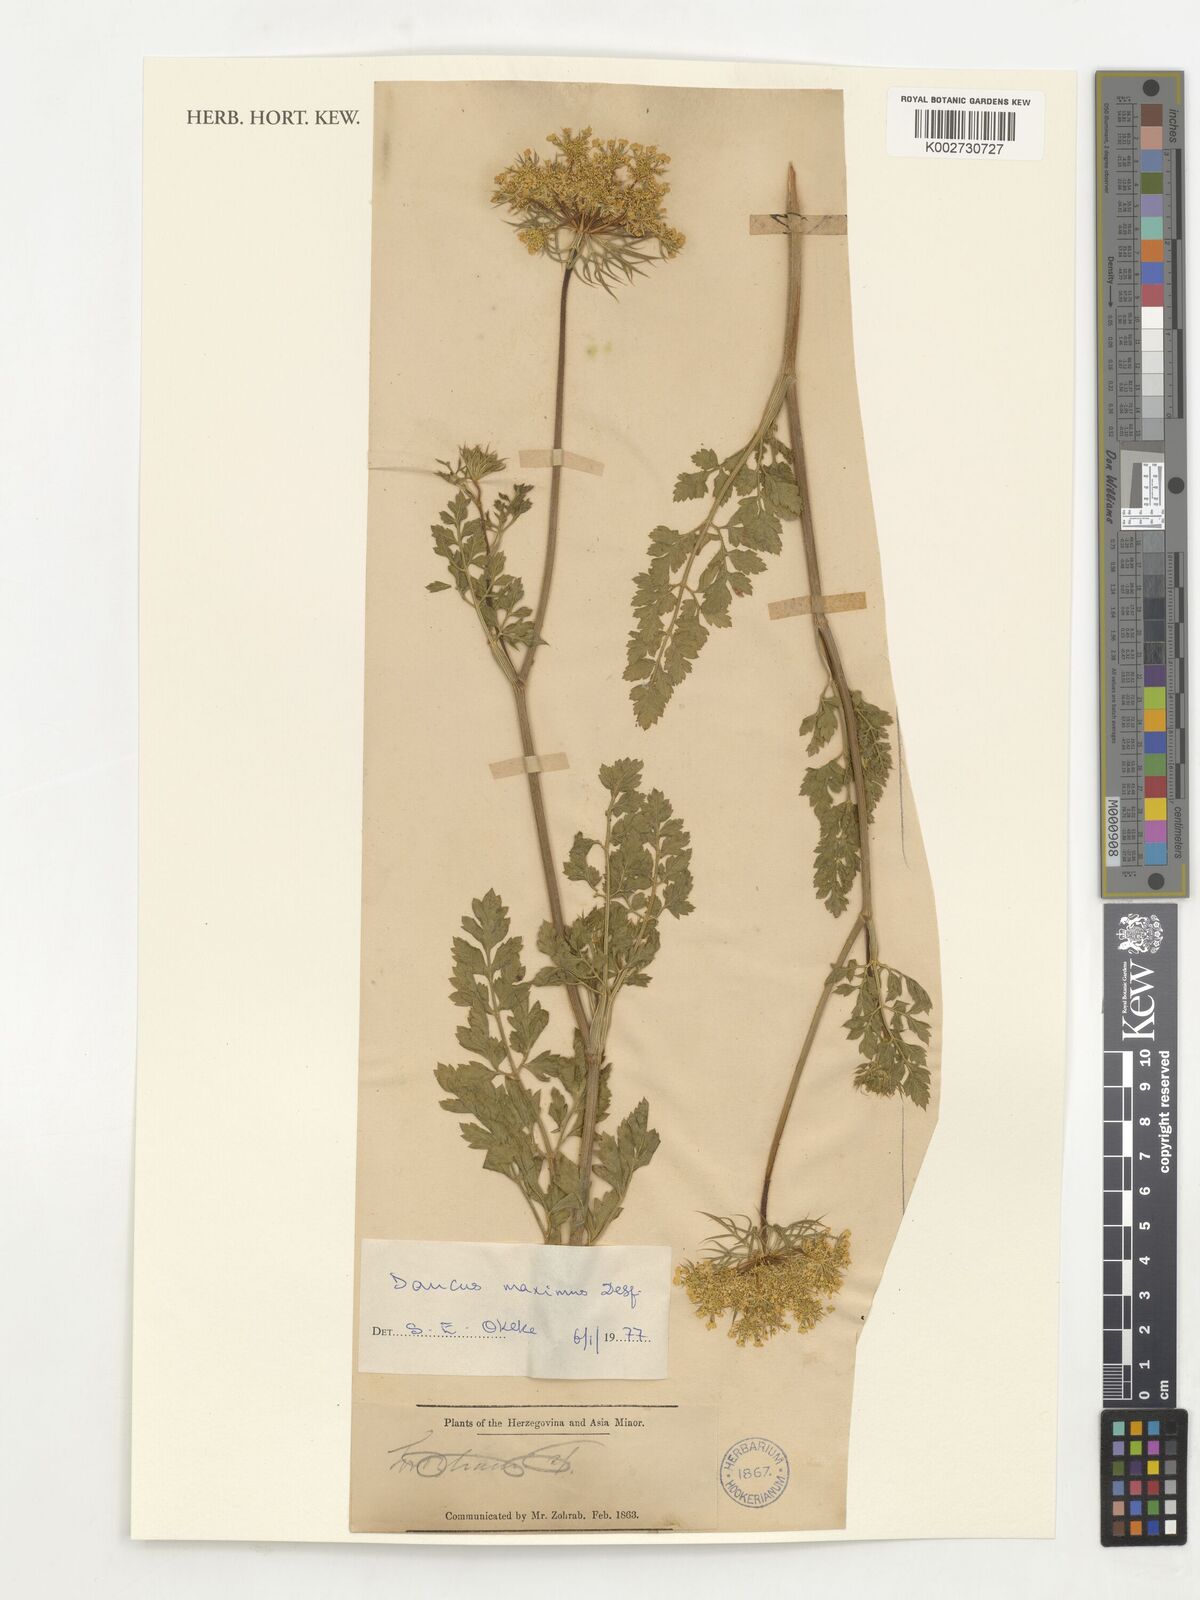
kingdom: Plantae
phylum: Tracheophyta
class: Magnoliopsida
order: Apiales
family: Apiaceae
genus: Daucus
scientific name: Daucus carota
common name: Wild carrot
